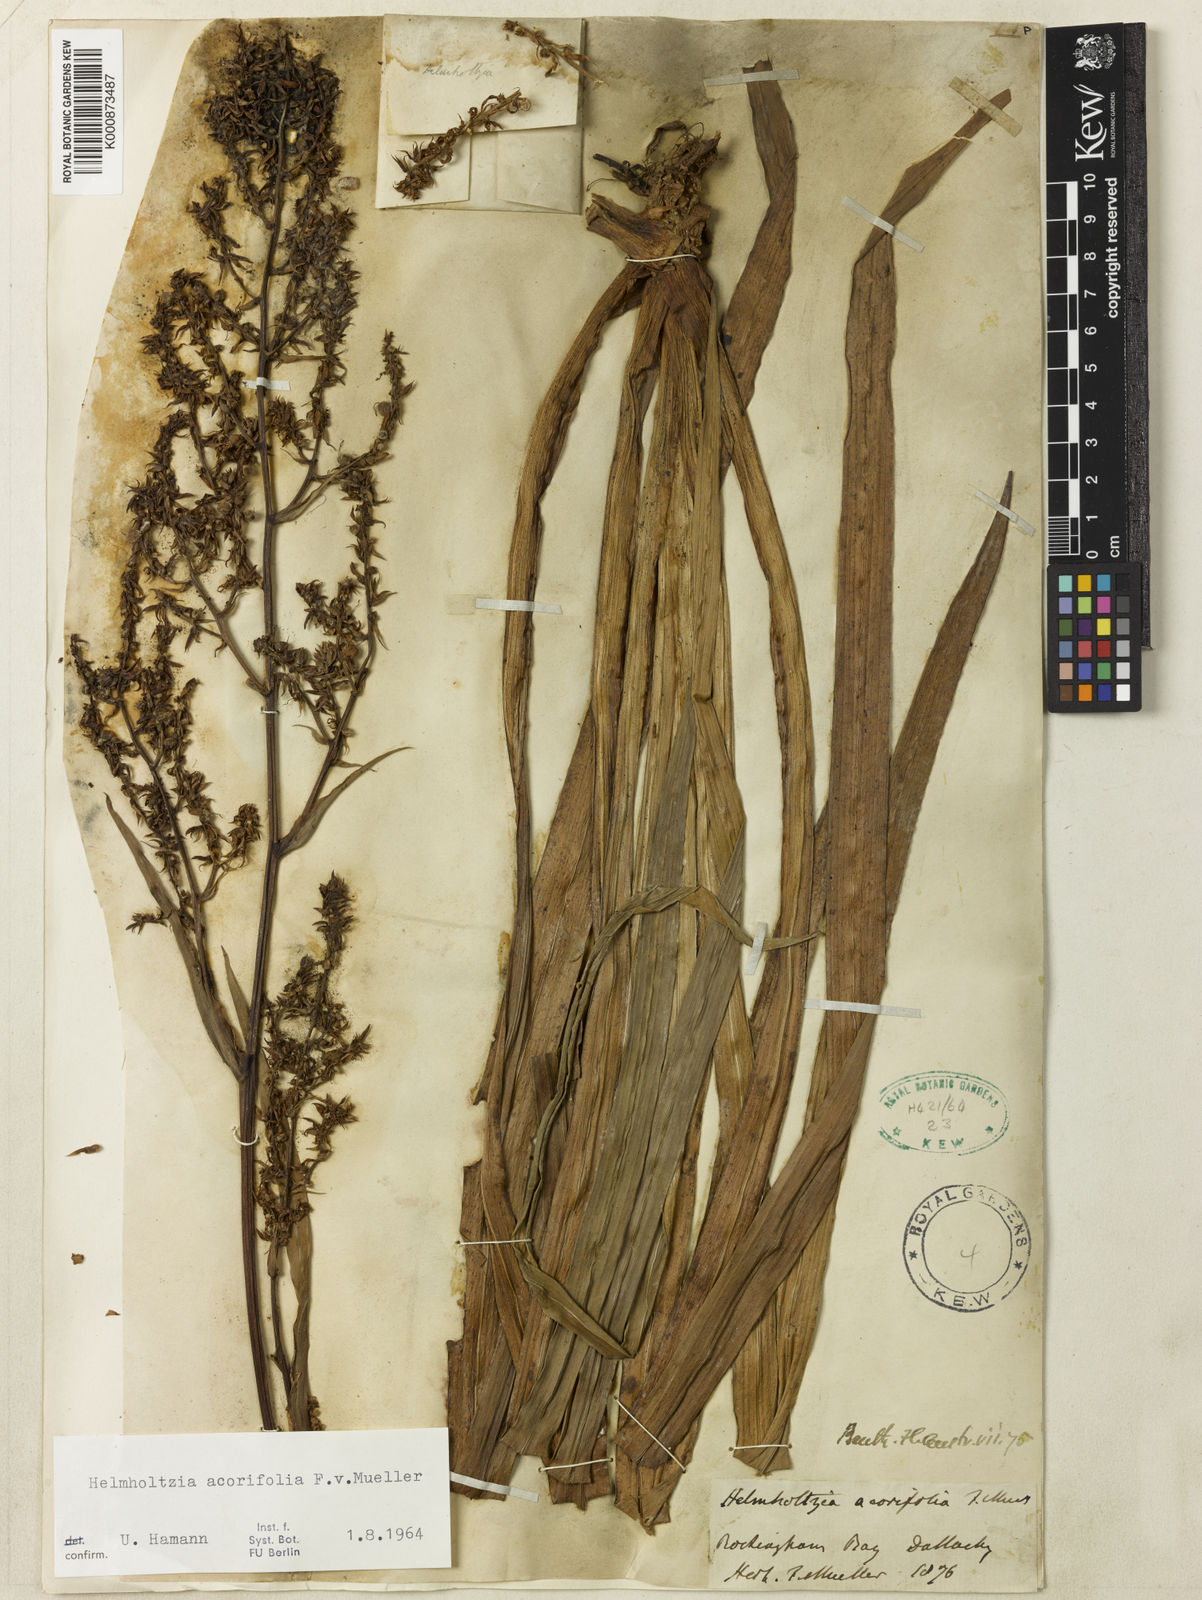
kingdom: Plantae
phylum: Tracheophyta
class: Liliopsida
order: Commelinales
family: Philydraceae
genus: Helmholtzia
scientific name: Helmholtzia acorifolia
